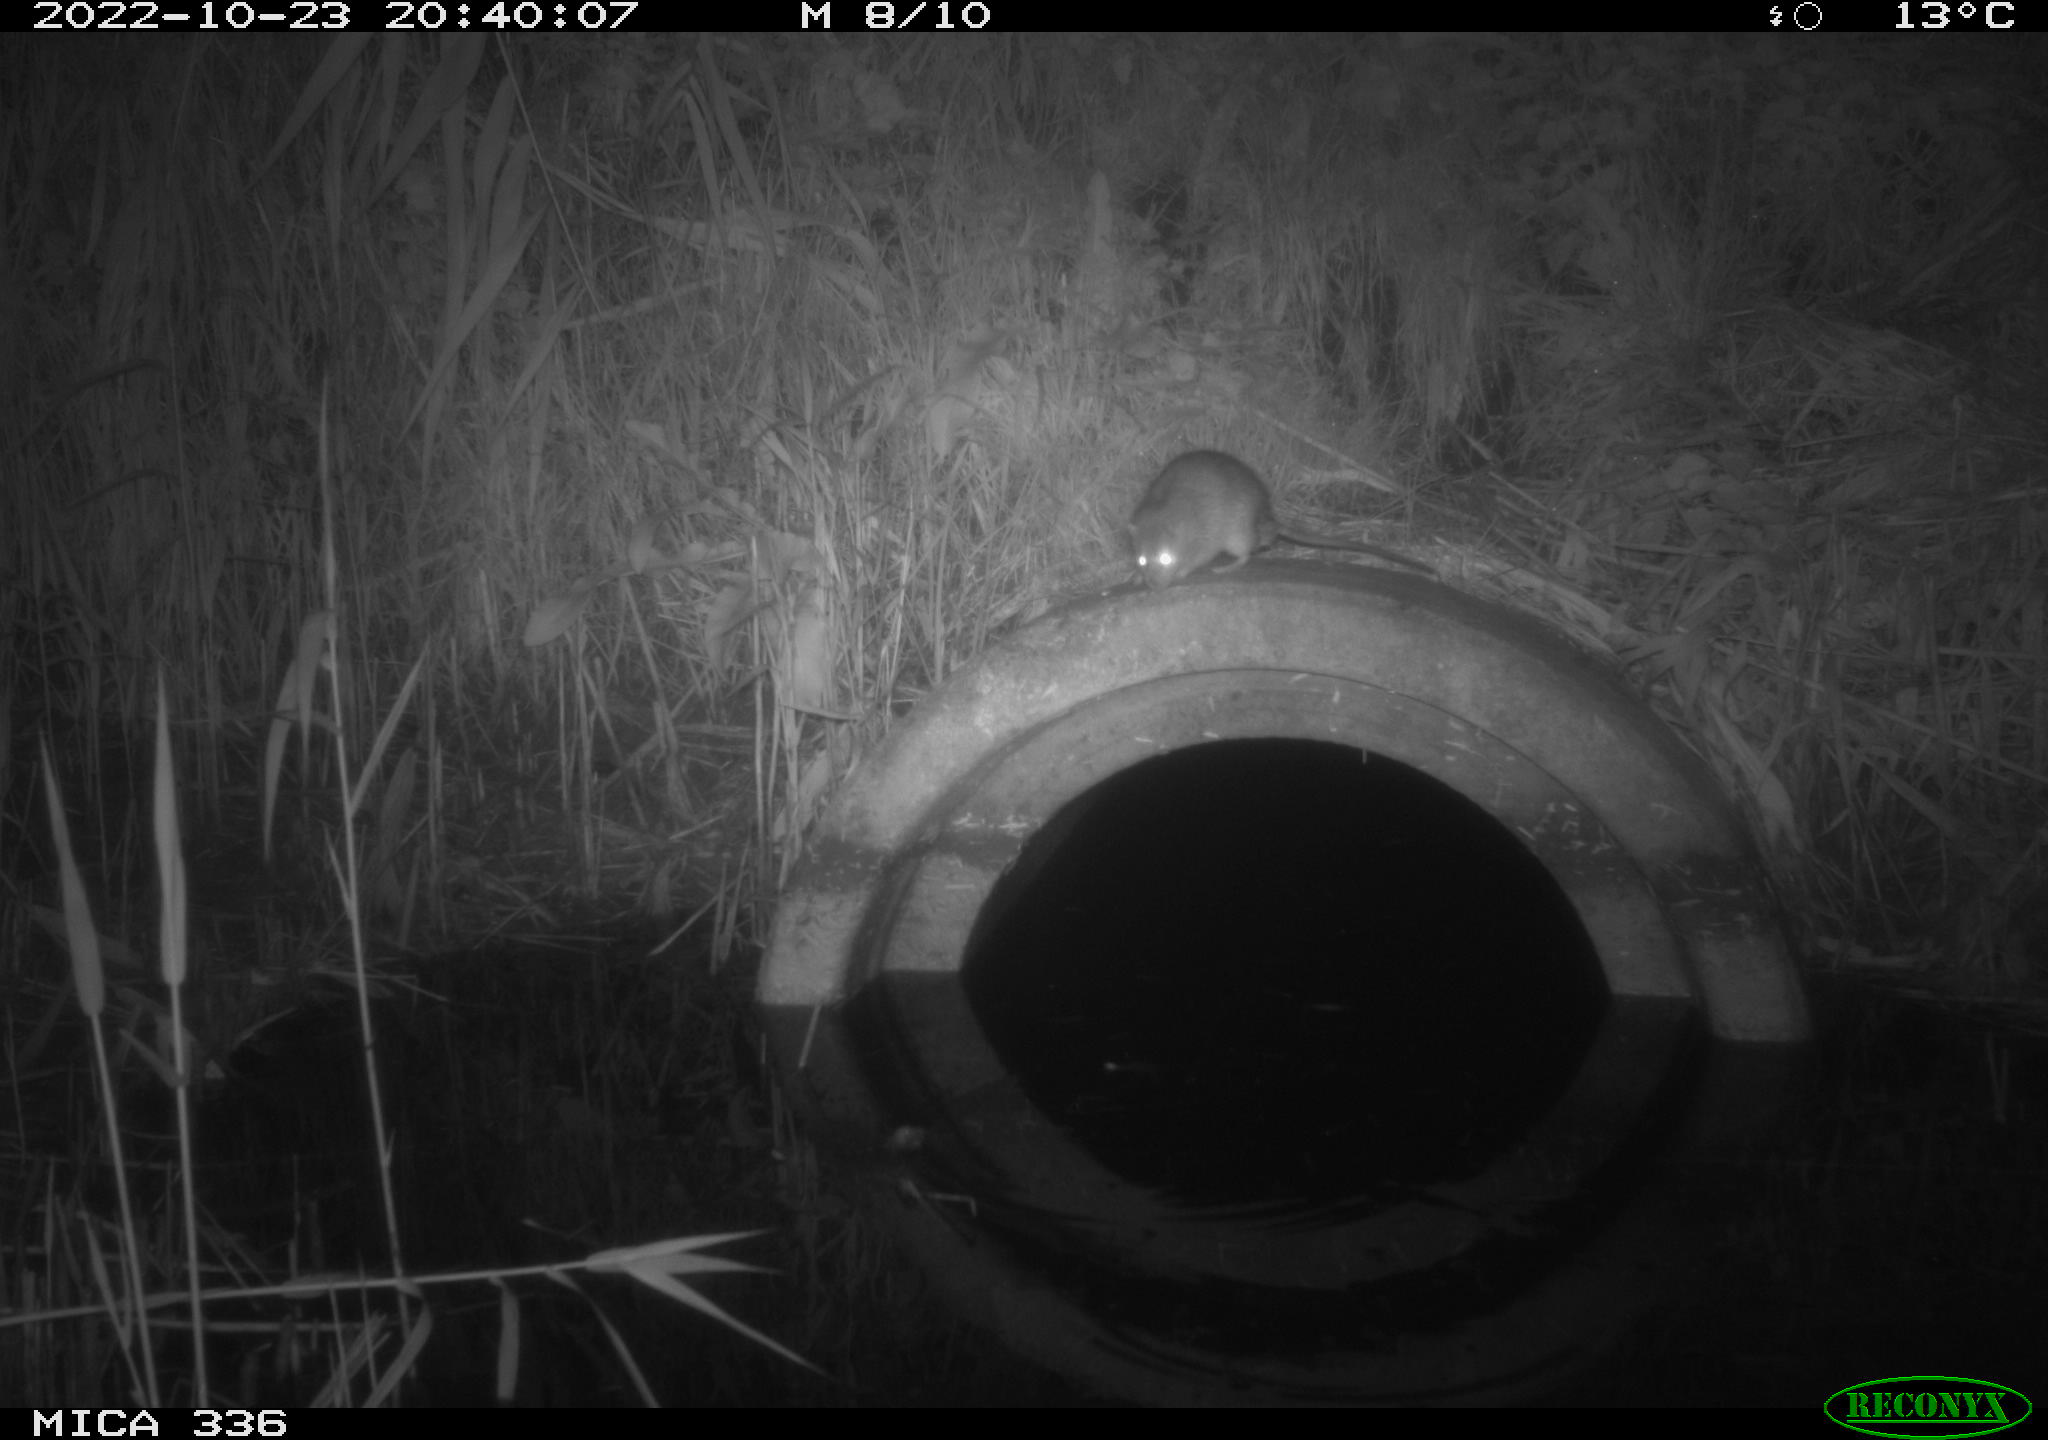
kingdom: Animalia
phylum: Chordata
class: Mammalia
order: Rodentia
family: Muridae
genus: Rattus
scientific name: Rattus norvegicus
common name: Brown rat
